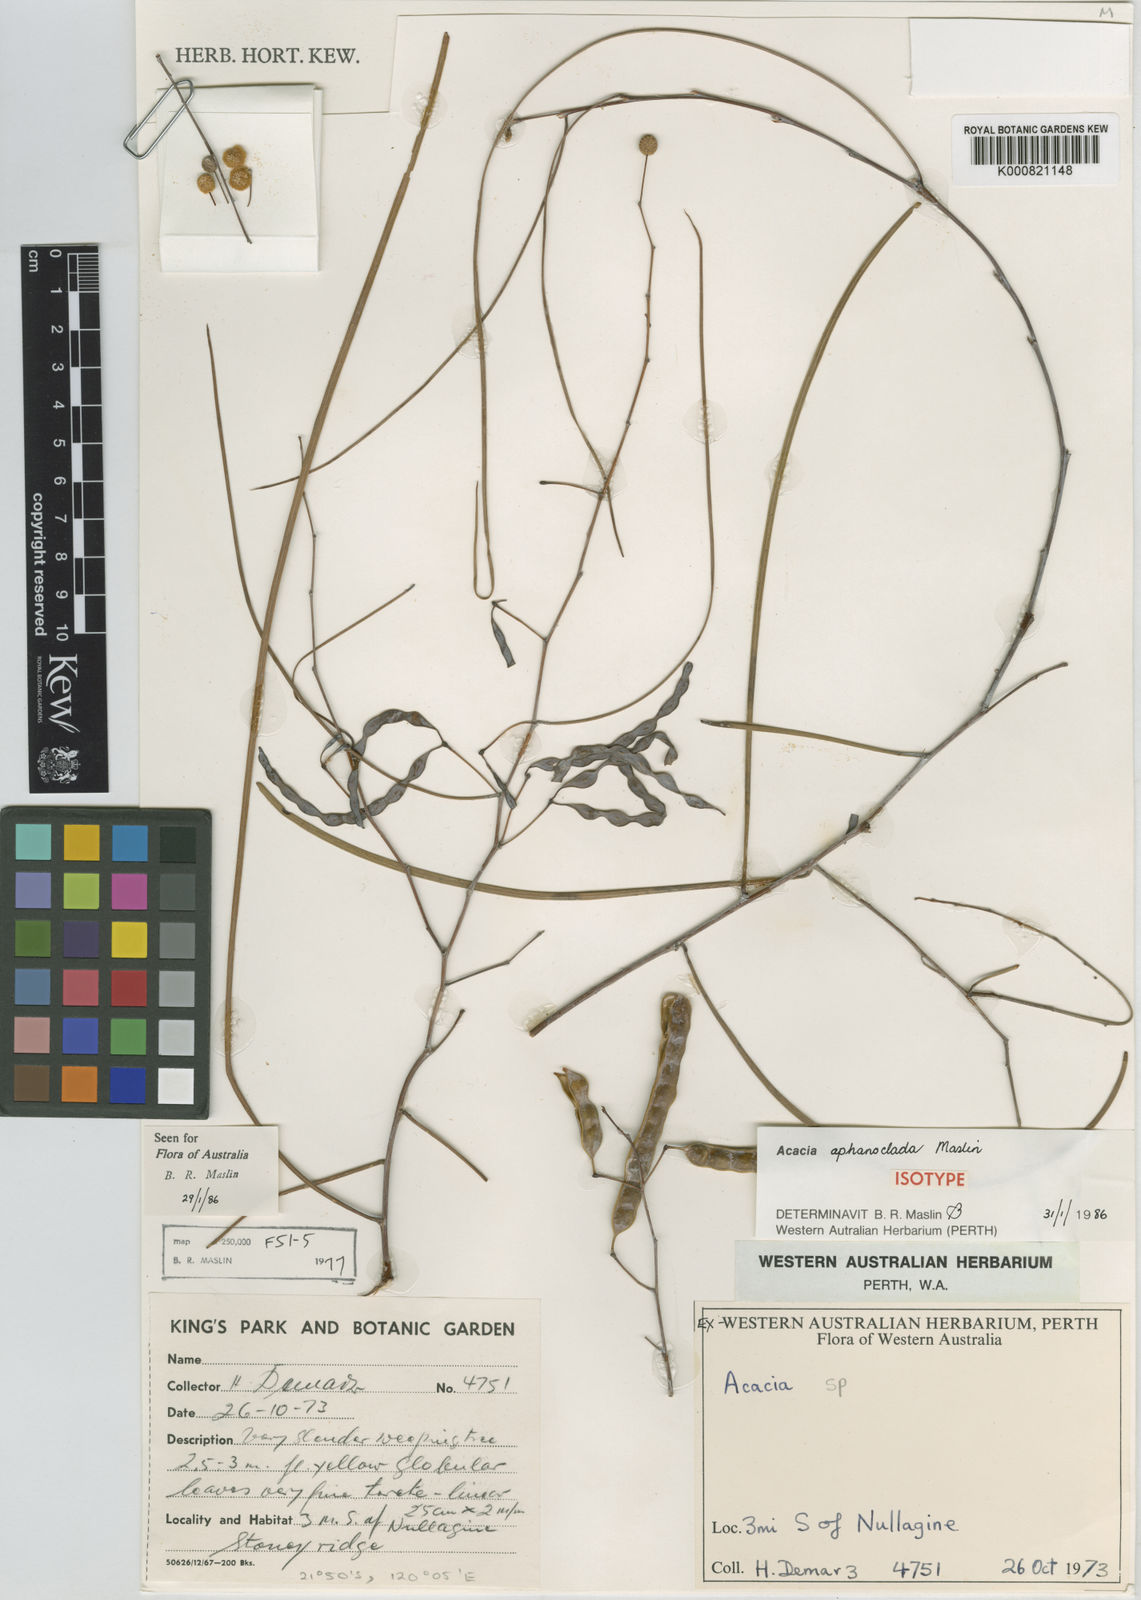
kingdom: Plantae
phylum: Tracheophyta
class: Magnoliopsida
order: Fabales
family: Fabaceae
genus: Acacia
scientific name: Acacia aphanoclada
